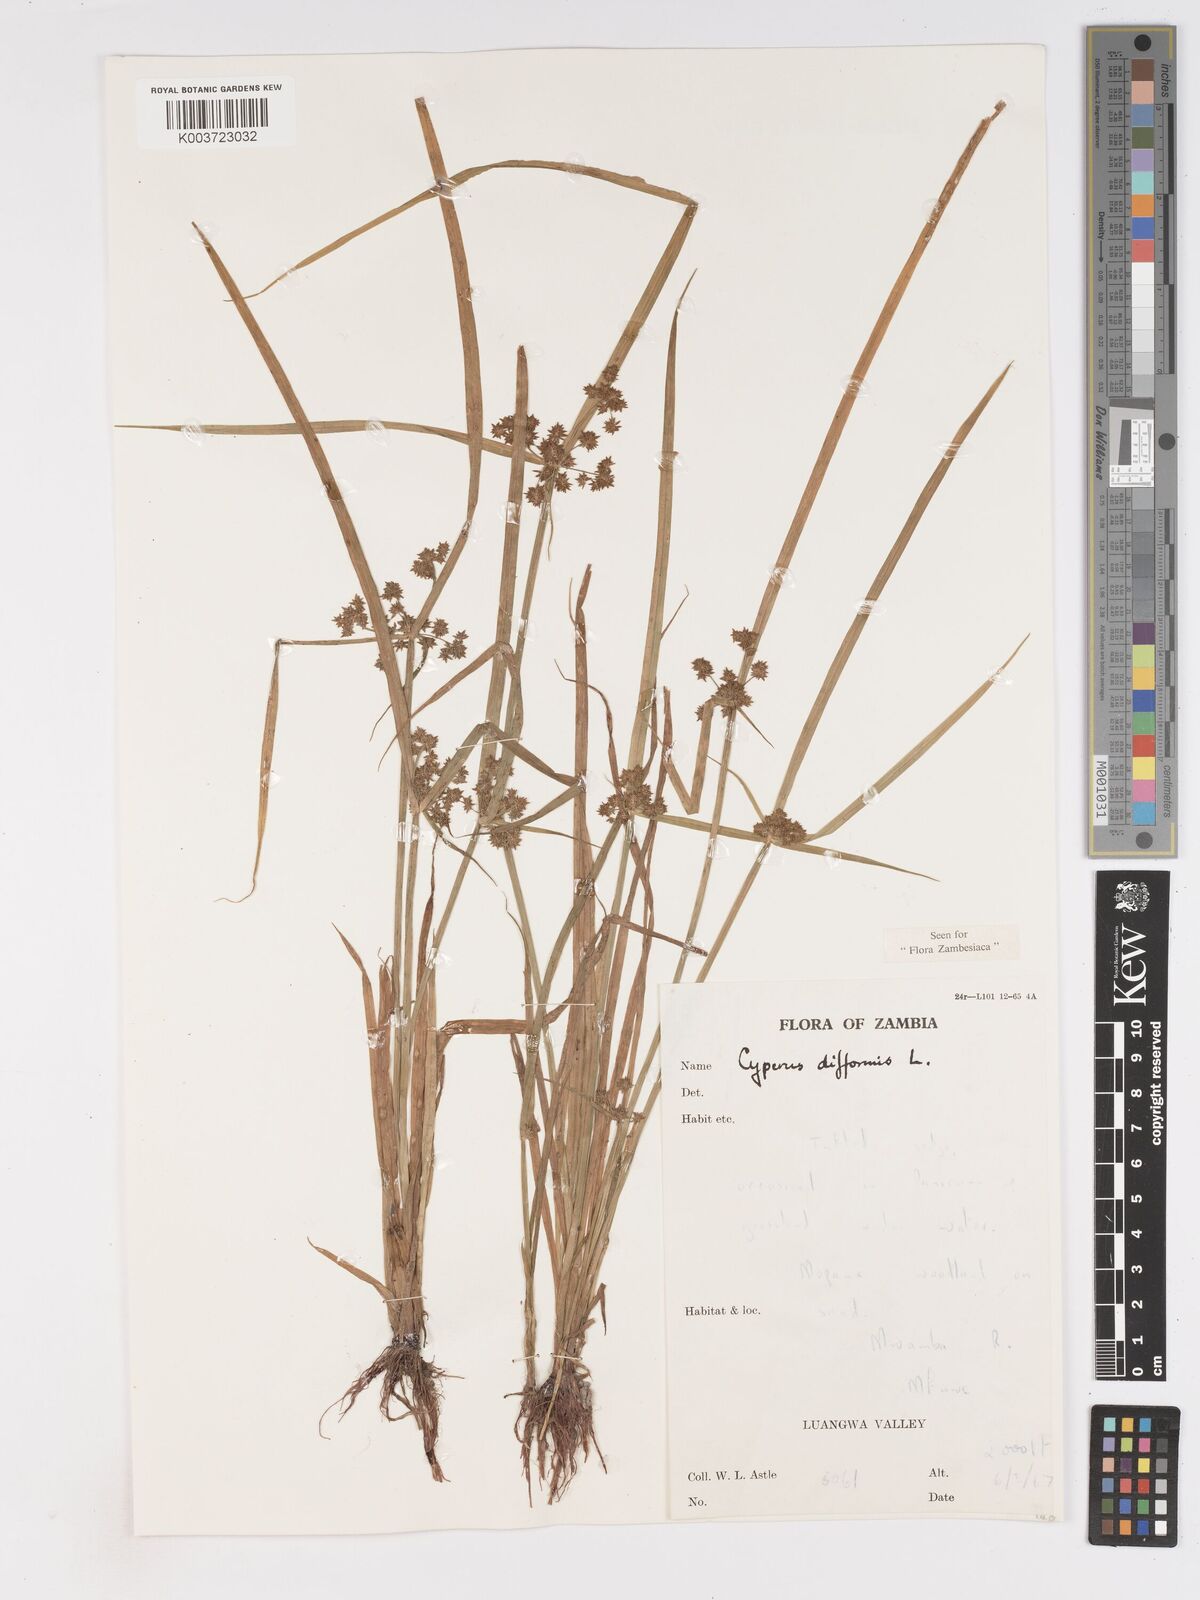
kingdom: Plantae
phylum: Tracheophyta
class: Liliopsida
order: Poales
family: Cyperaceae
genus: Cyperus
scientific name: Cyperus difformis
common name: Variable flatsedge
